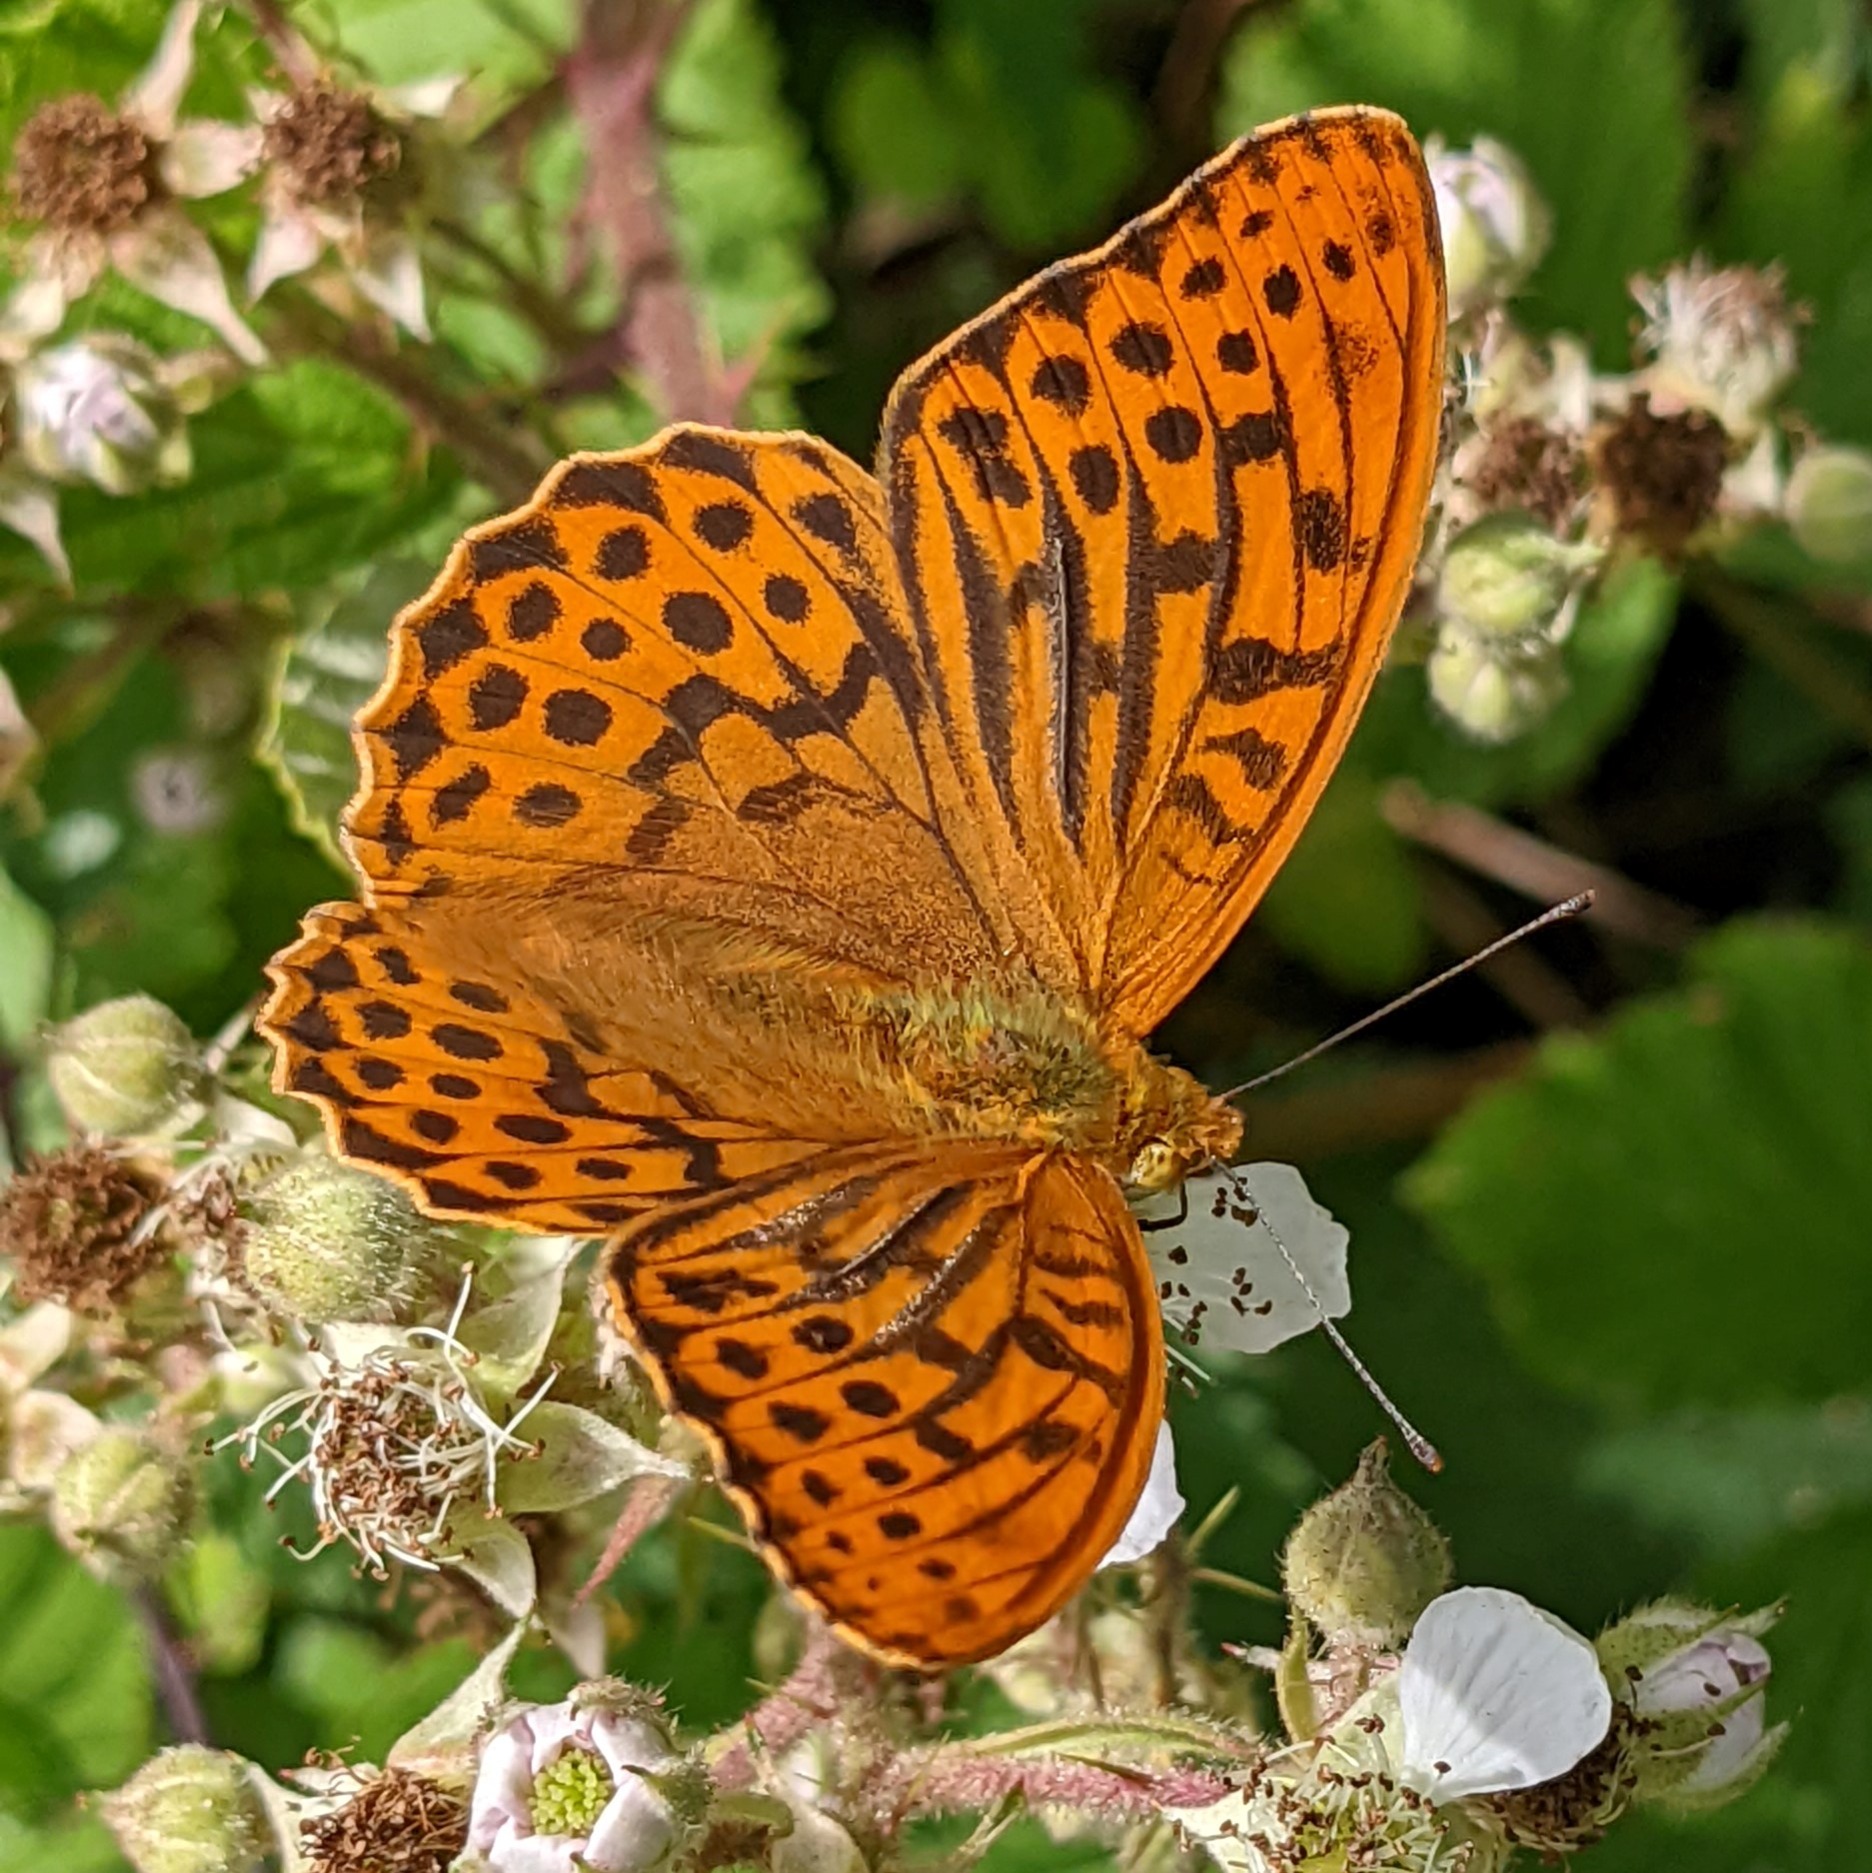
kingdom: Animalia
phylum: Arthropoda
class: Insecta
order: Lepidoptera
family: Nymphalidae
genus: Argynnis
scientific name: Argynnis paphia
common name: Kejserkåbe
